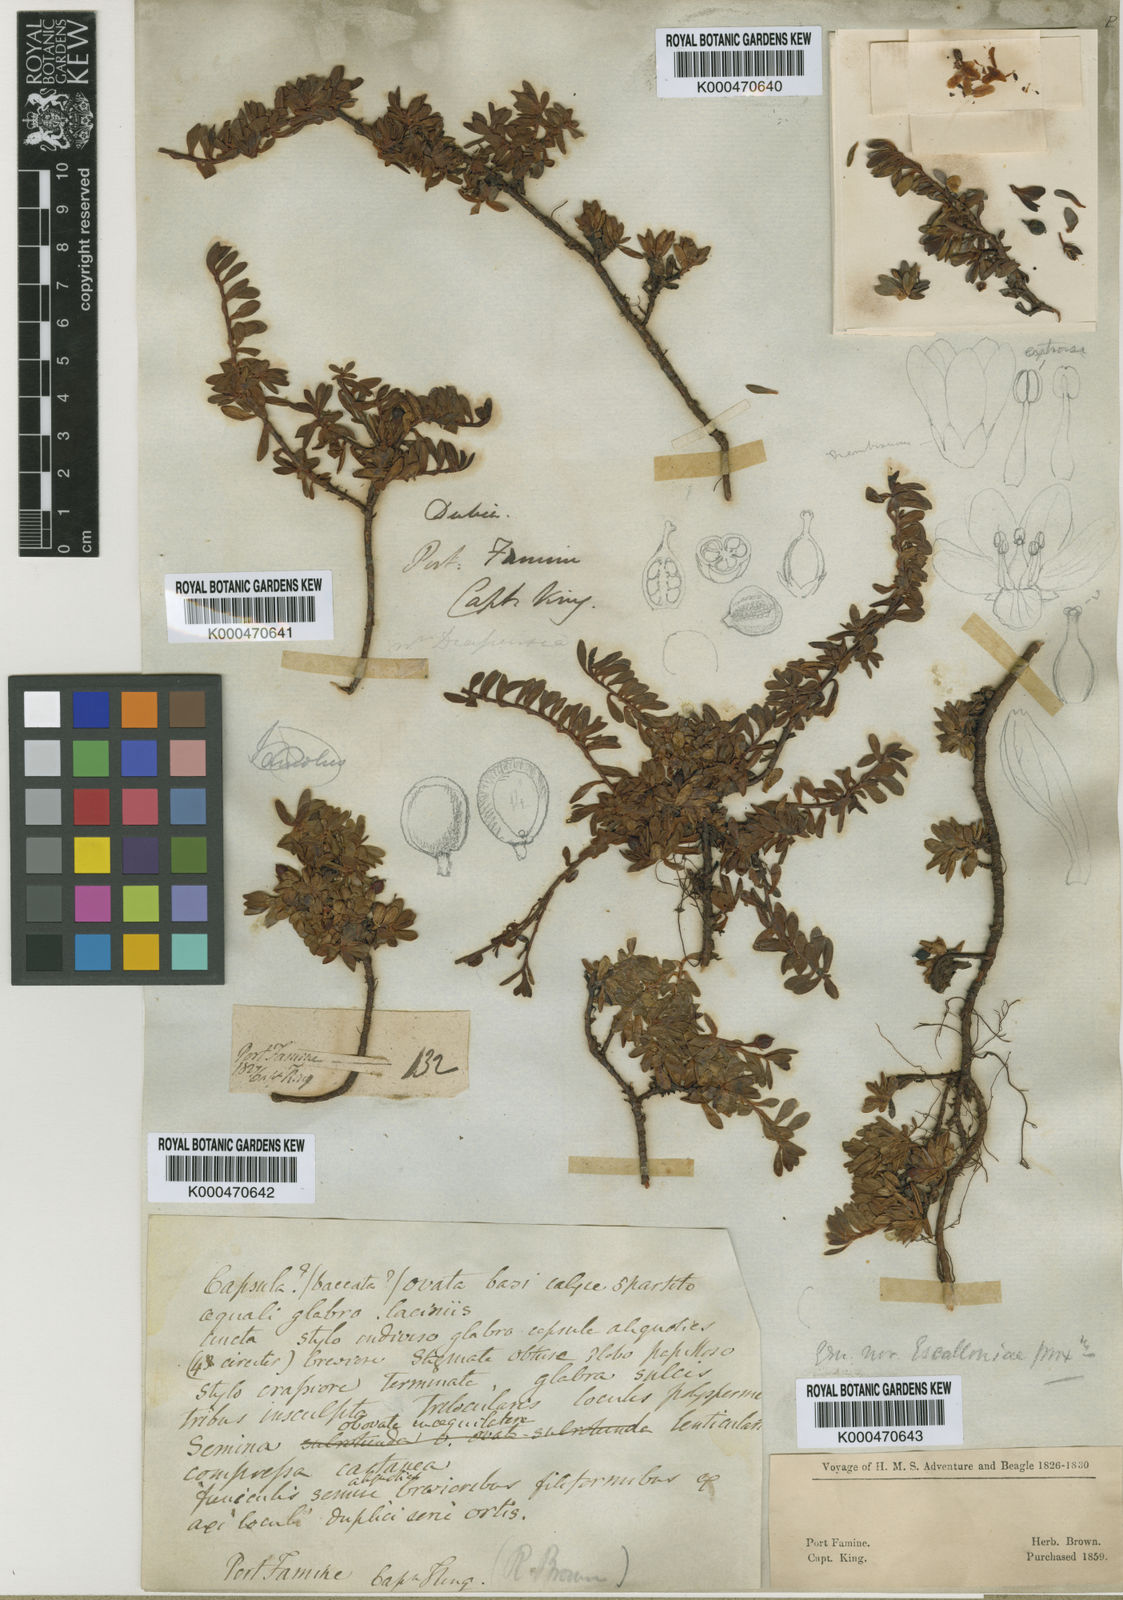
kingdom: Plantae
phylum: Tracheophyta
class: Magnoliopsida
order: Escalloniales
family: Escalloniaceae
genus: Tribeles
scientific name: Tribeles australis
